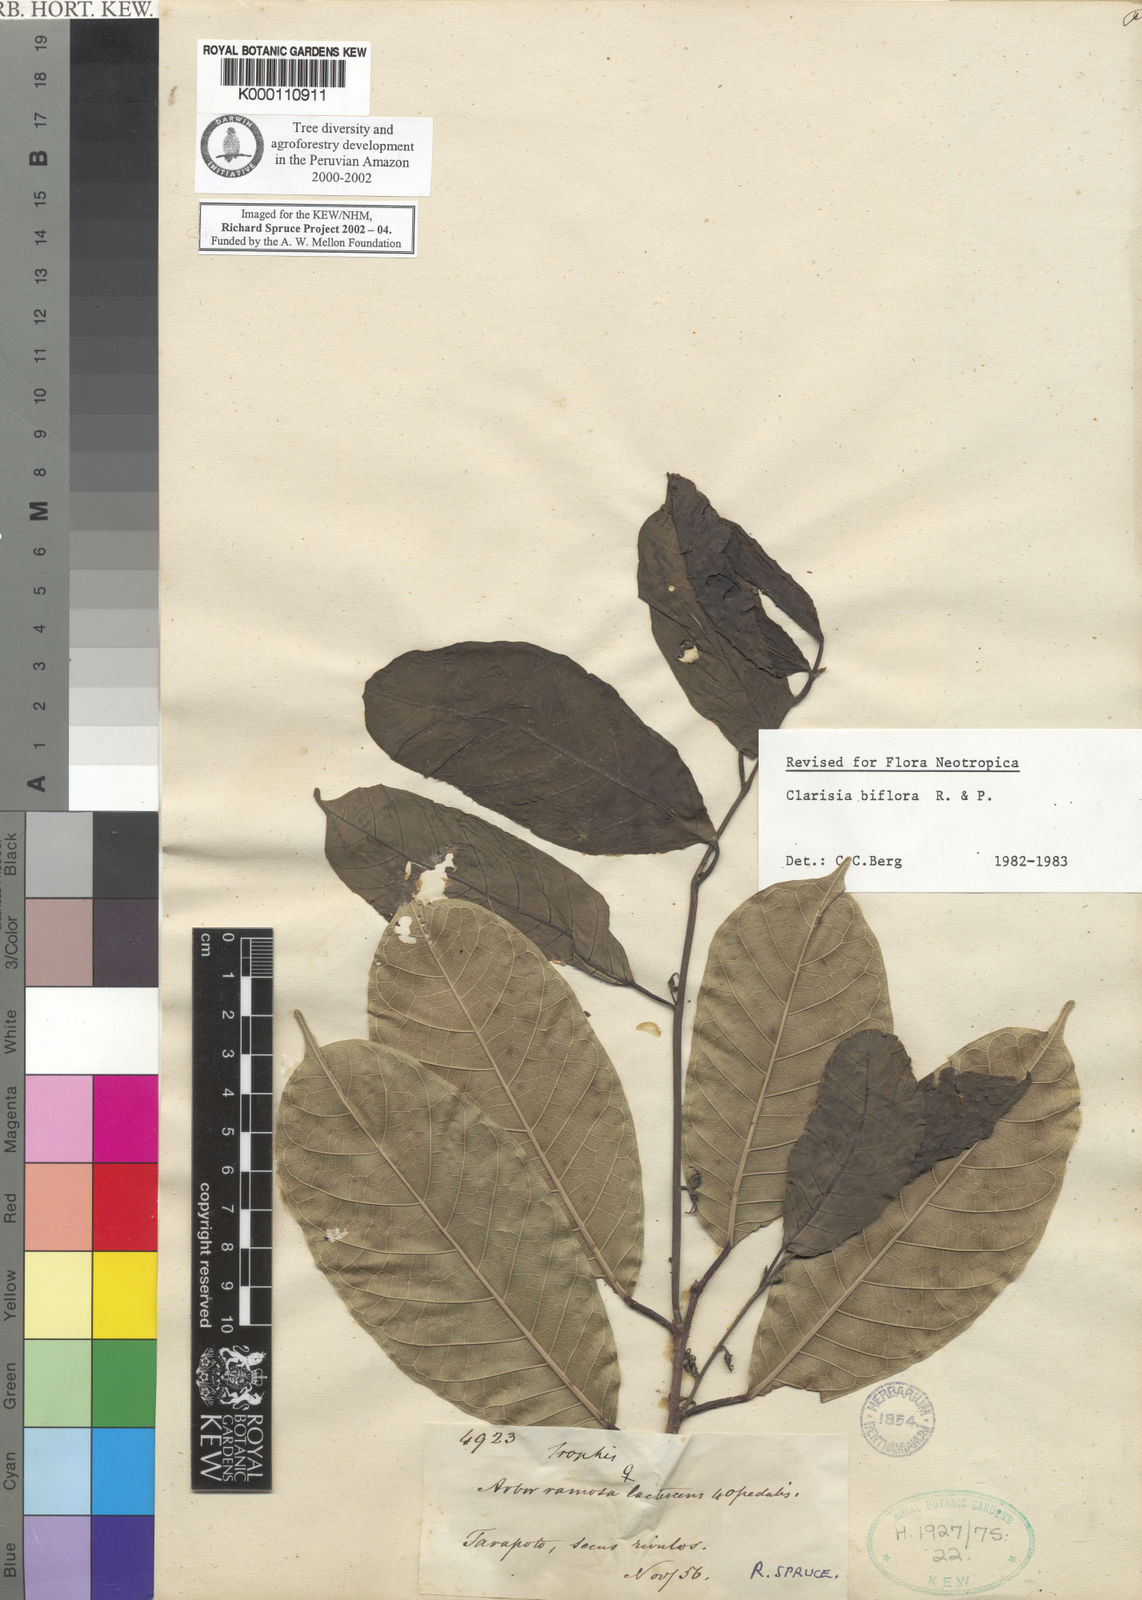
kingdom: Plantae
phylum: Tracheophyta
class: Magnoliopsida
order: Rosales
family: Moraceae
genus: Clarisia
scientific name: Clarisia biflora
